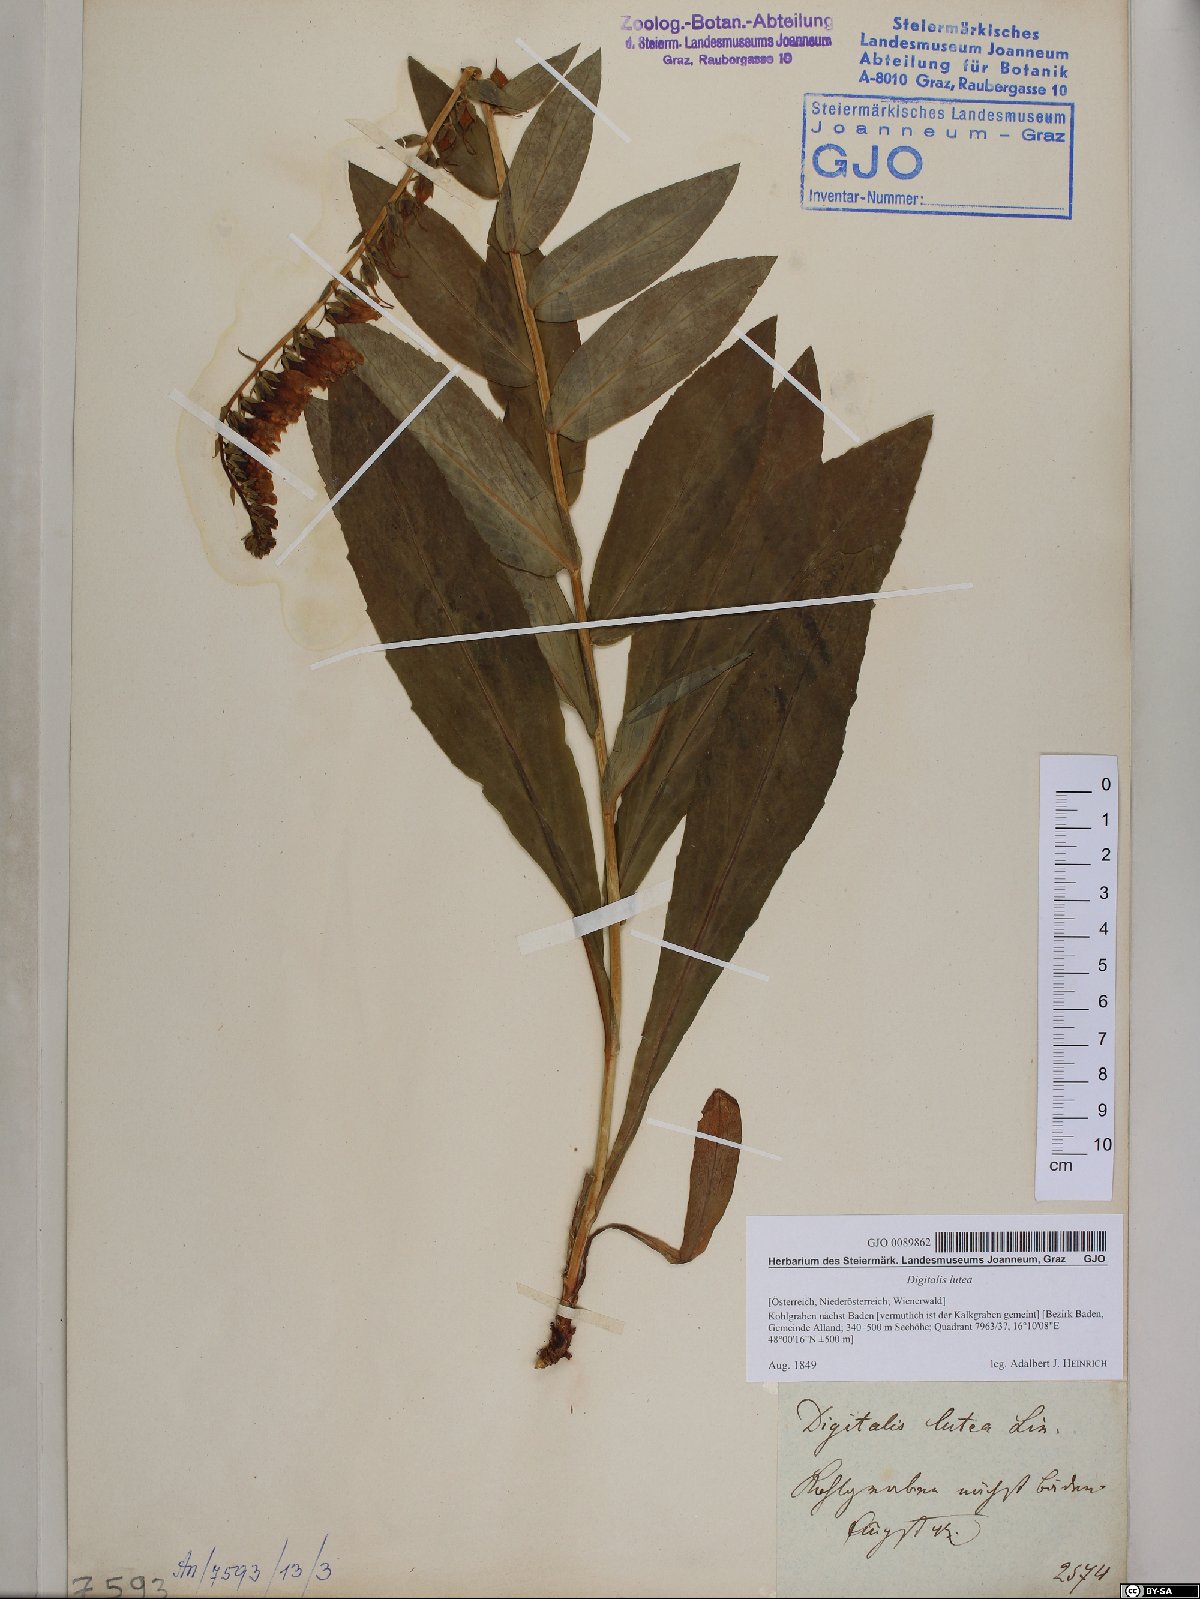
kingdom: Plantae
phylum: Tracheophyta
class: Magnoliopsida
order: Lamiales
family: Plantaginaceae
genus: Digitalis
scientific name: Digitalis lutea
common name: Straw foxglove
